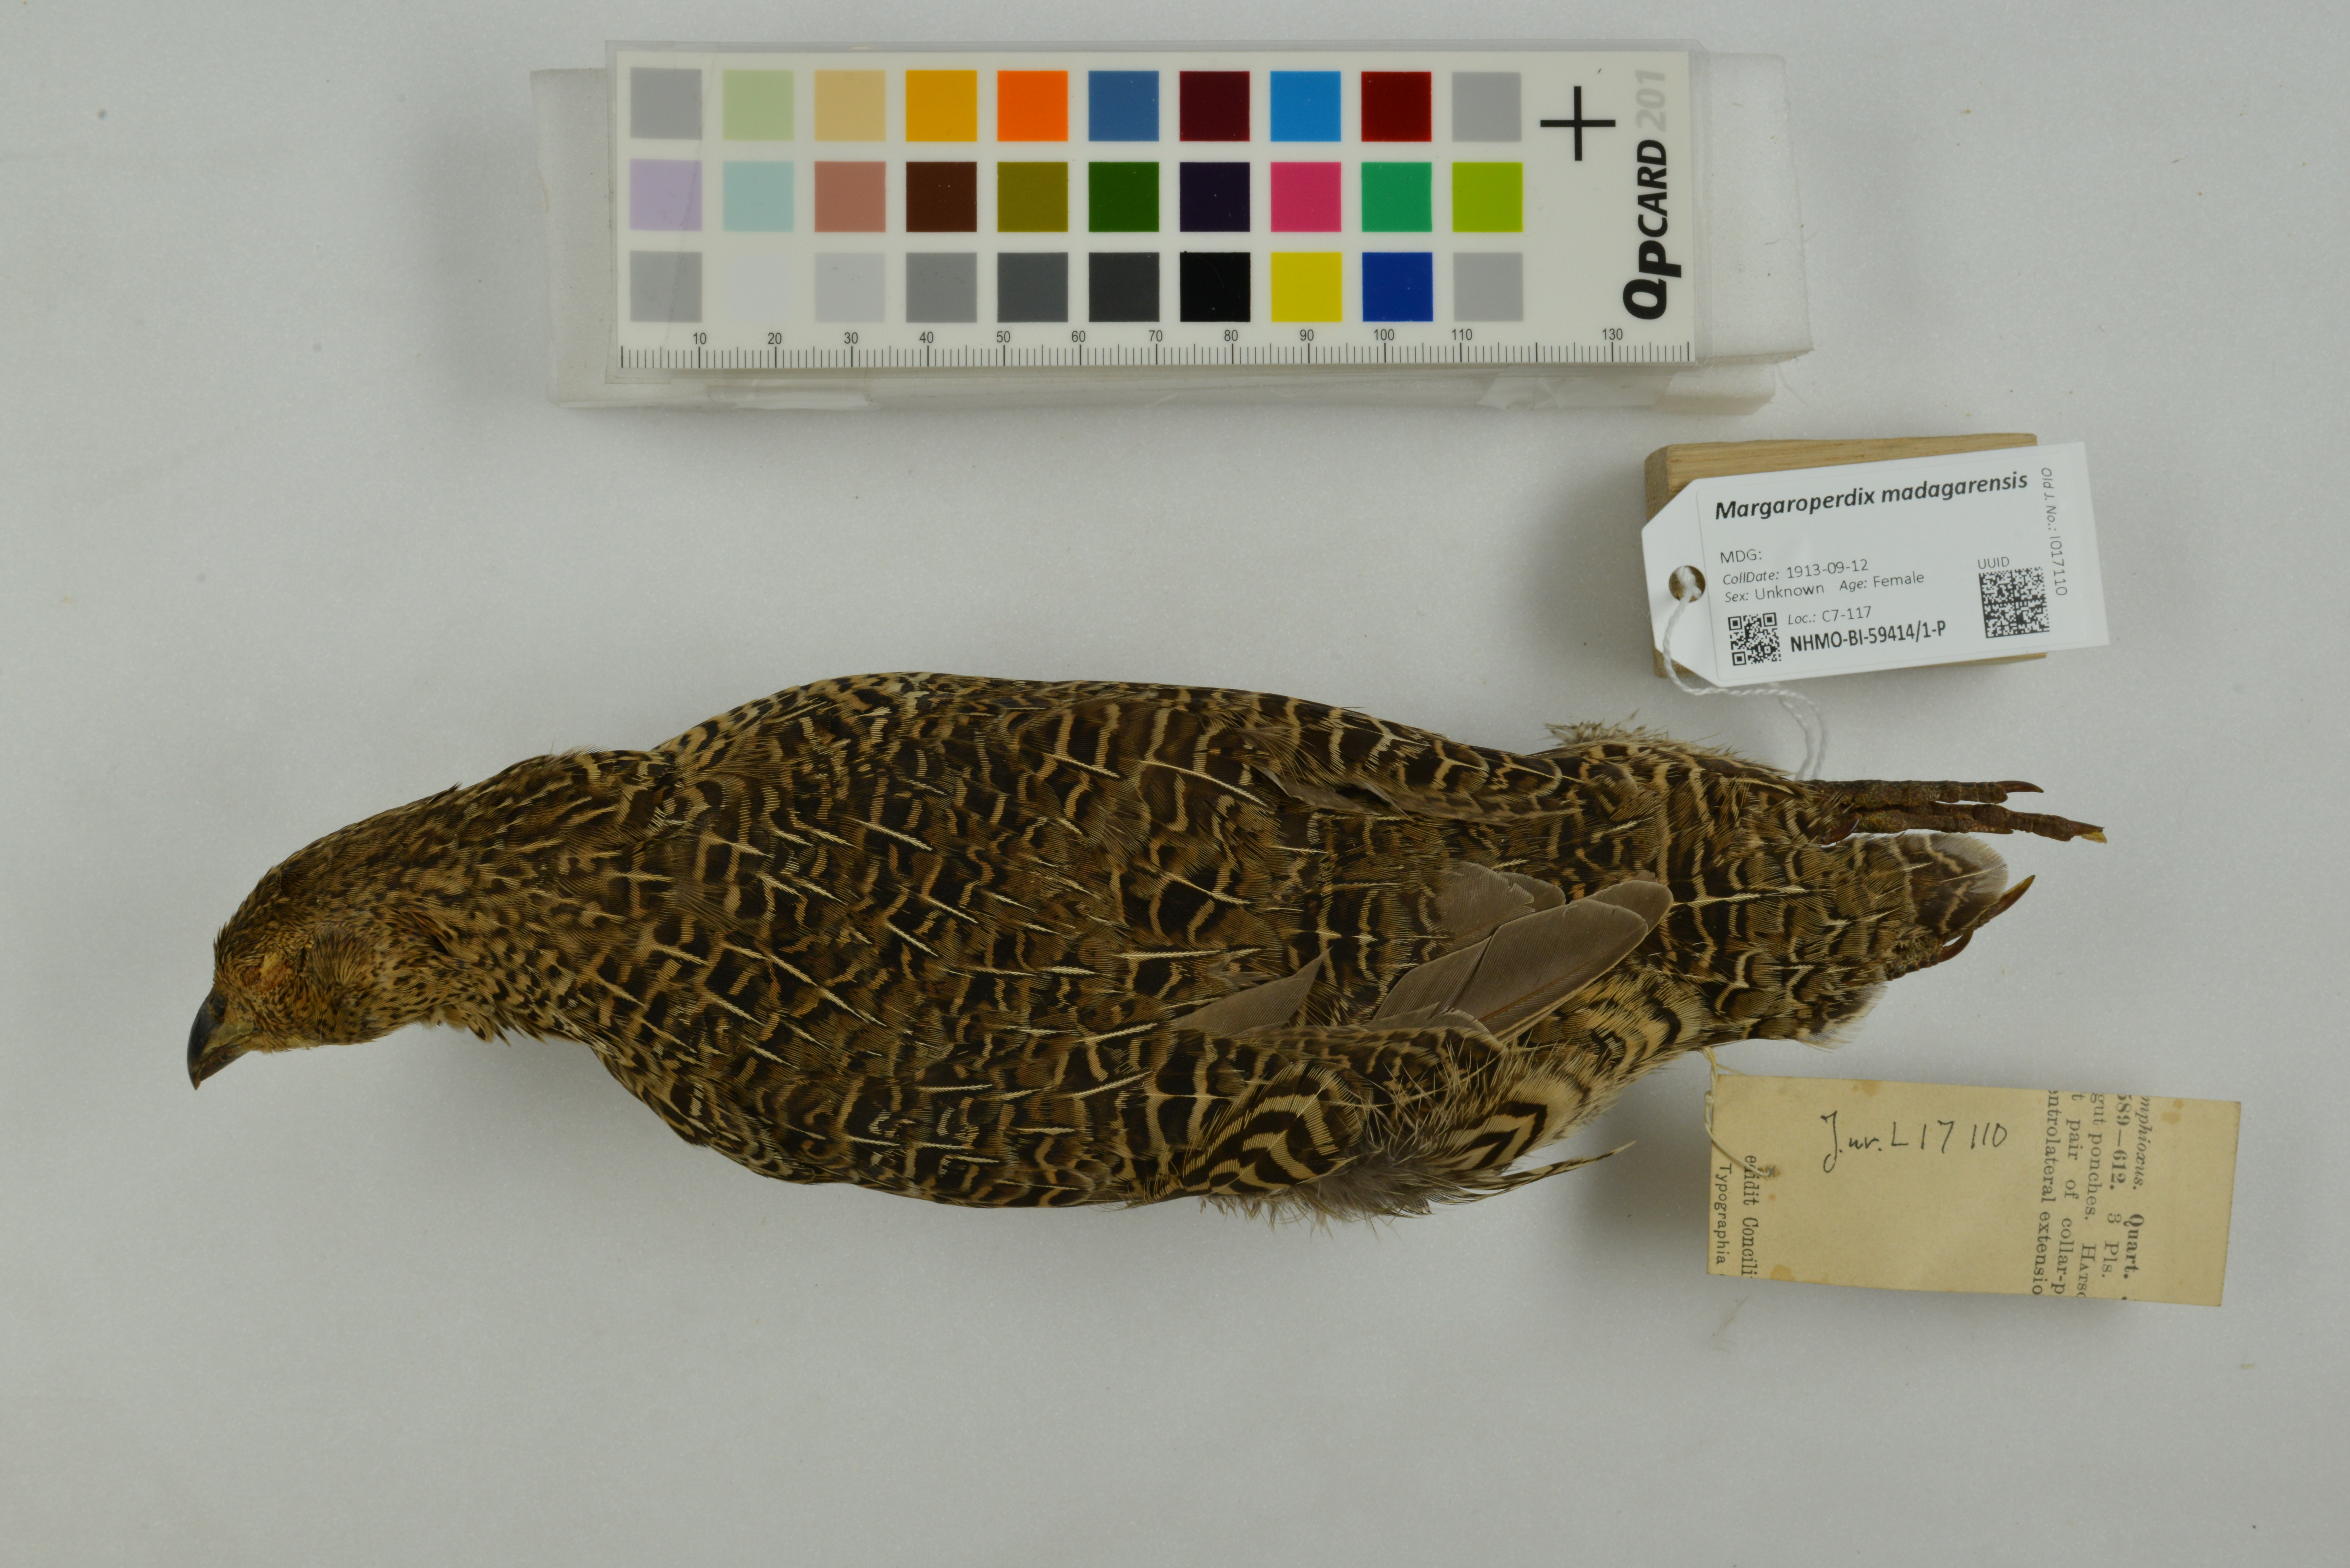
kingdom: Animalia
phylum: Chordata
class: Aves
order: Galliformes
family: Phasianidae
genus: Margaroperdix
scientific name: Margaroperdix madagarensis
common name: Madagascar partridge
